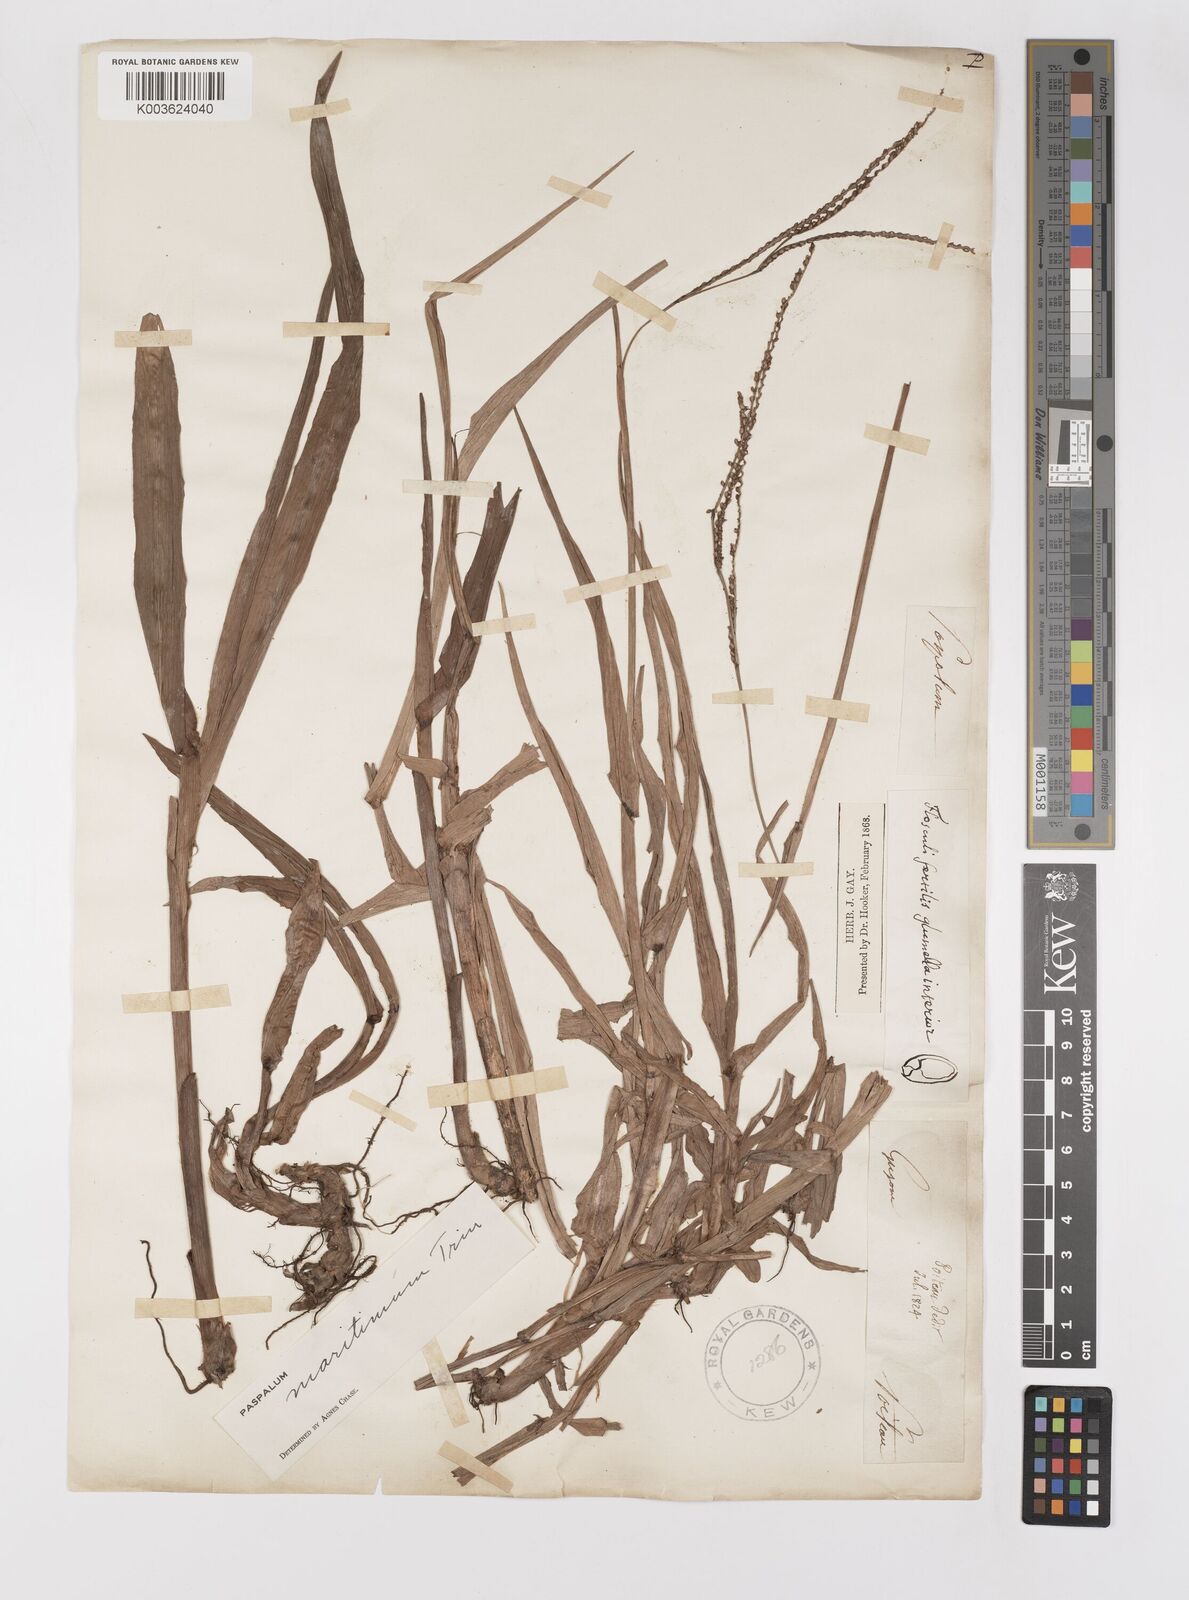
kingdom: Plantae
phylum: Tracheophyta
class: Liliopsida
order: Poales
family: Poaceae
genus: Paspalum
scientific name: Paspalum maritimum
